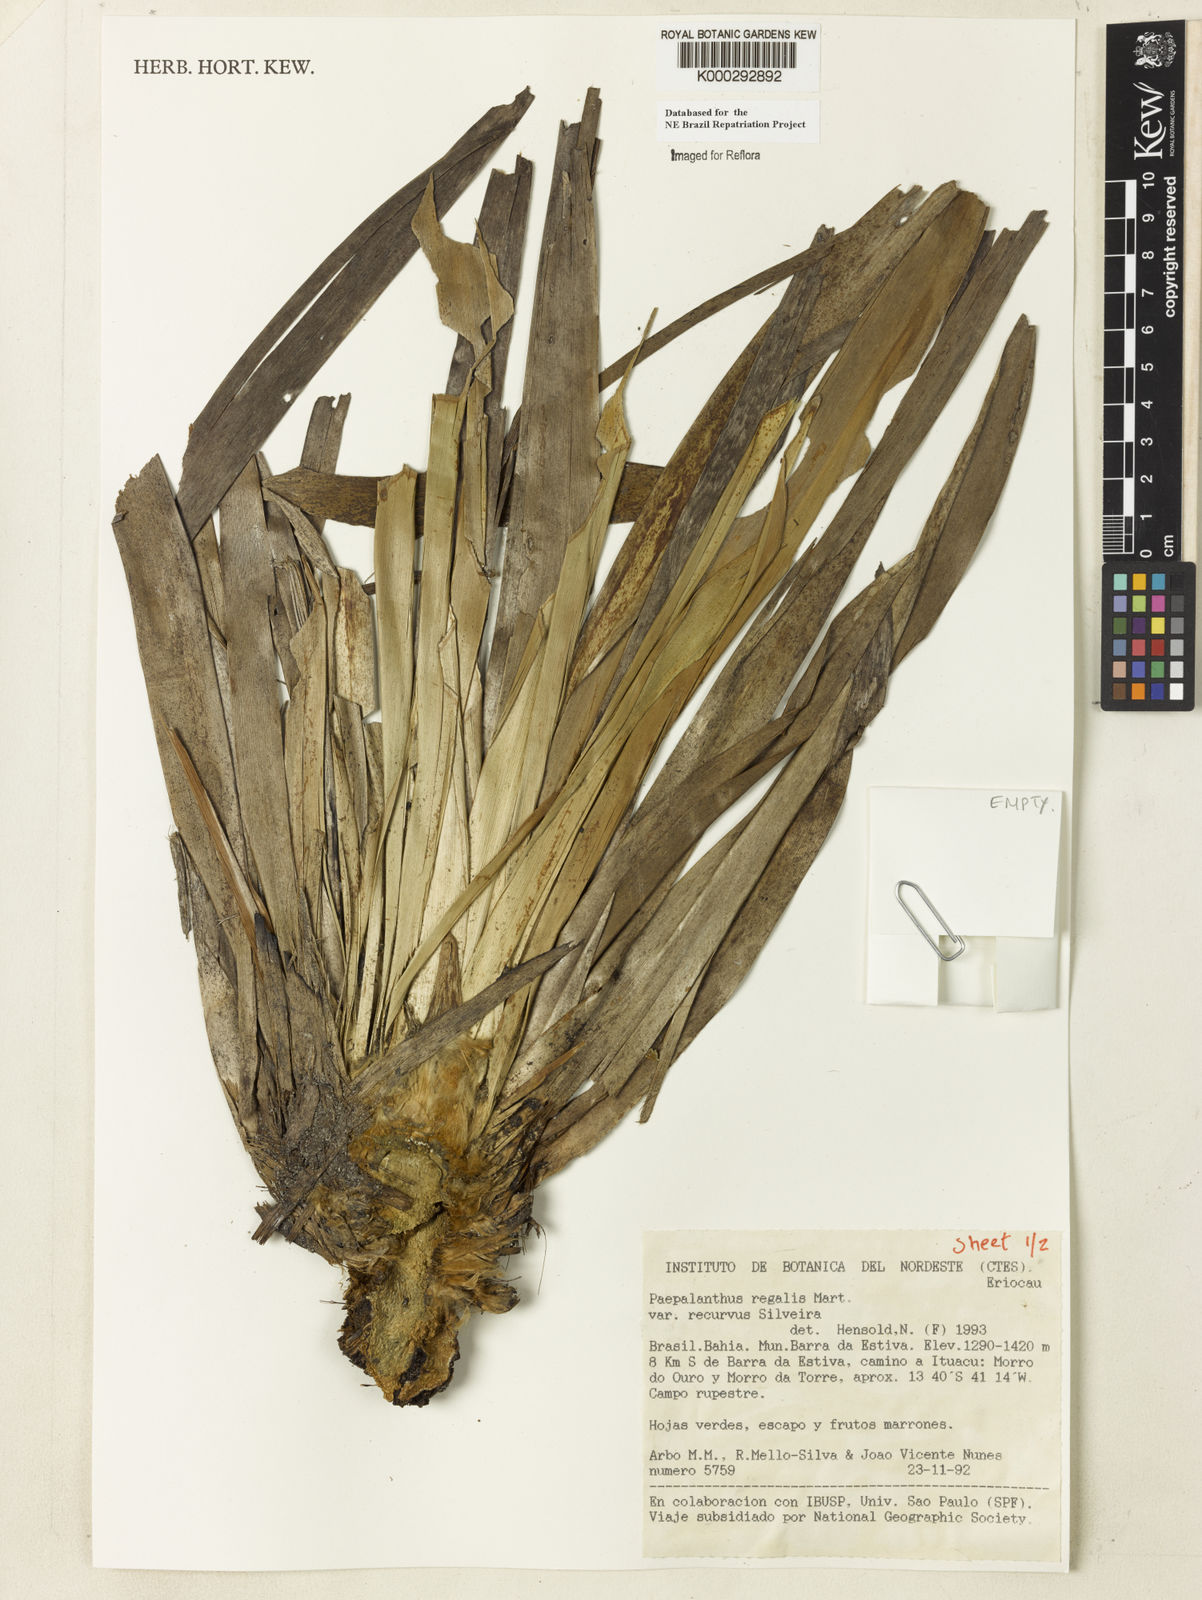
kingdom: Plantae
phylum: Tracheophyta
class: Liliopsida
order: Poales
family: Eriocaulaceae
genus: Paepalanthus
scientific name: Paepalanthus
